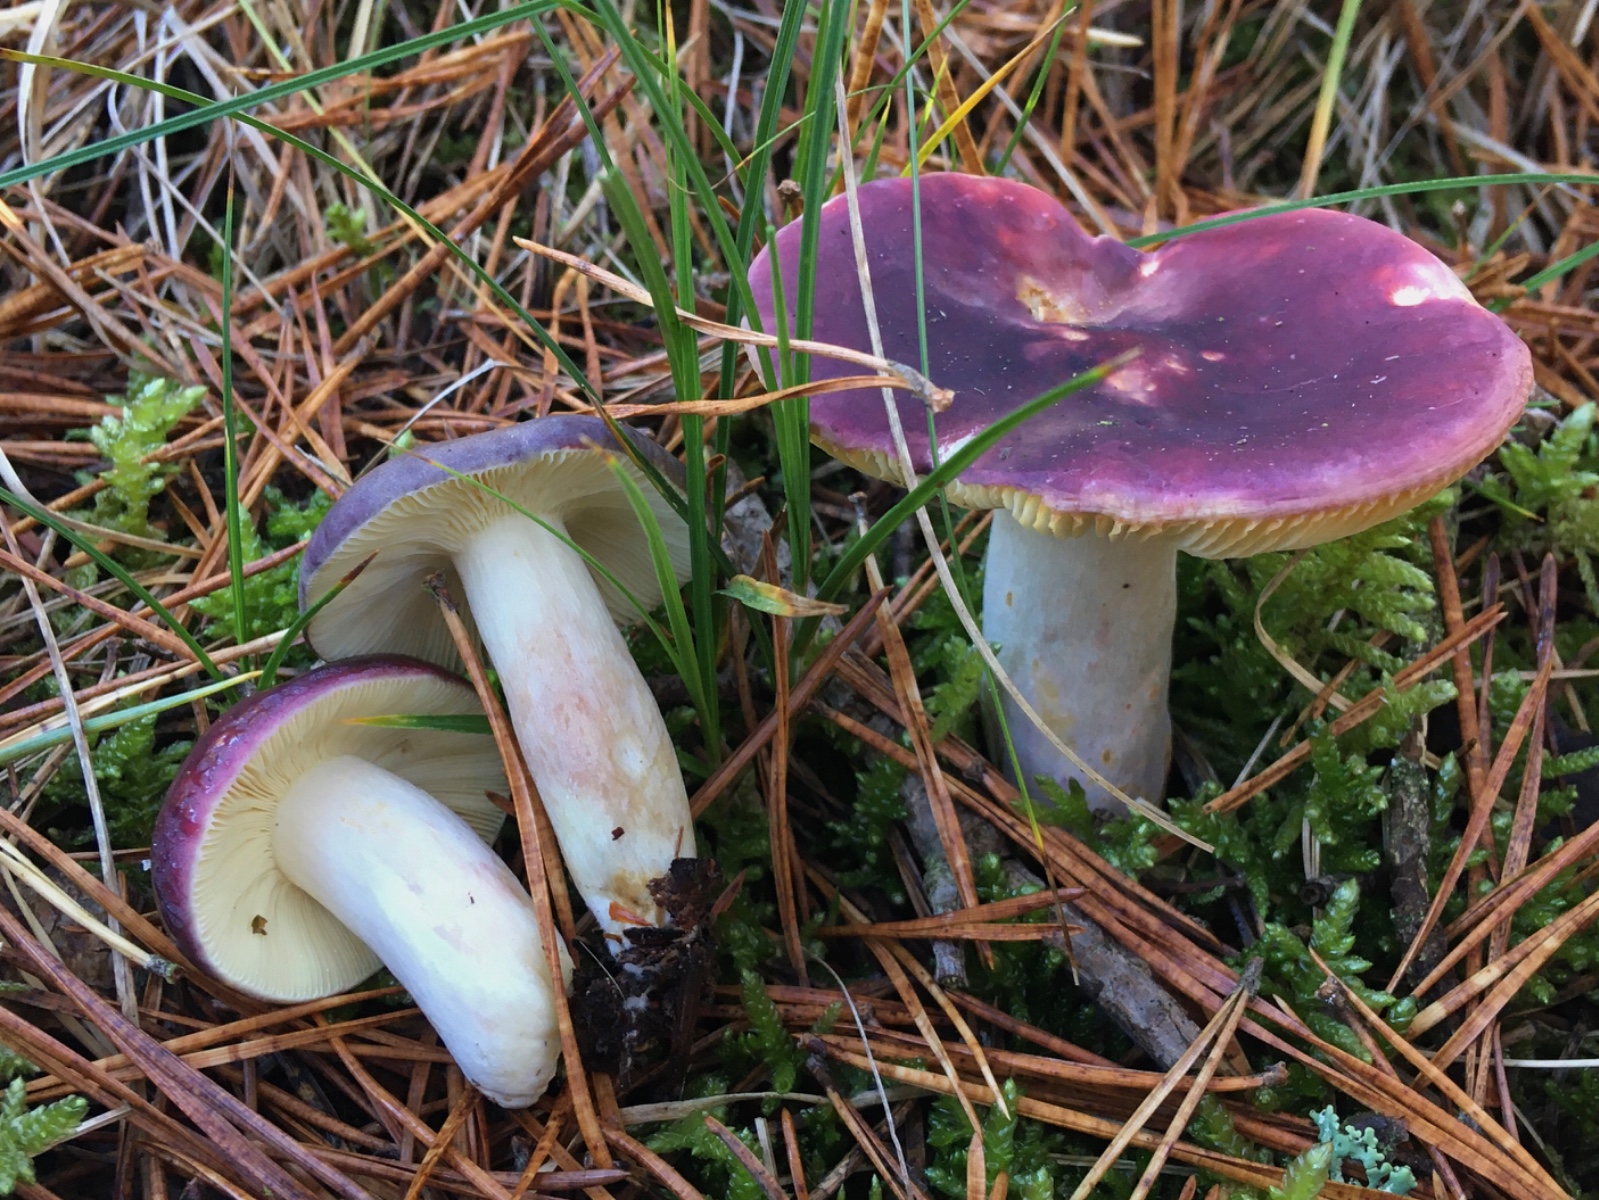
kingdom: Fungi
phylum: Basidiomycota
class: Agaricomycetes
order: Russulales
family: Russulaceae
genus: Russula
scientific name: Russula sardonia
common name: citronbladet skørhat
